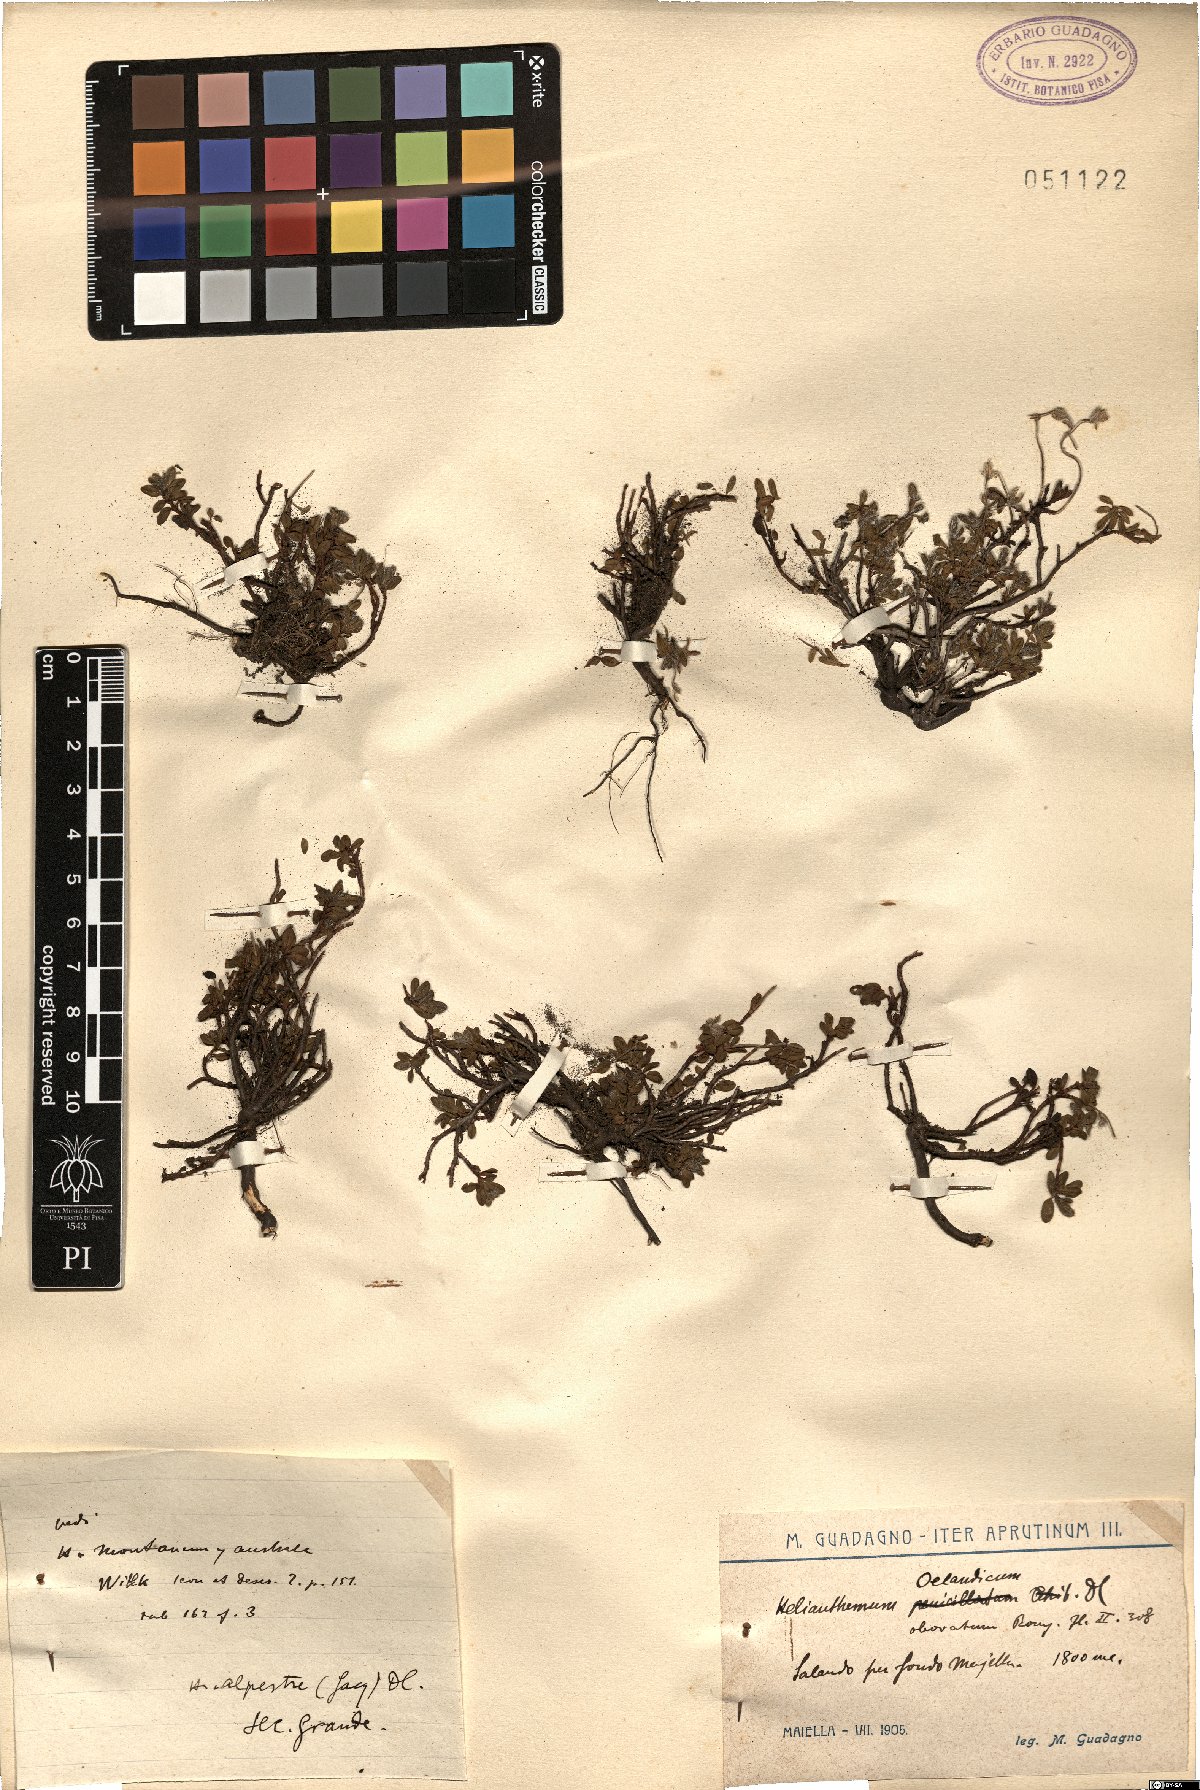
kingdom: Plantae
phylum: Tracheophyta
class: Magnoliopsida
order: Malvales
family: Cistaceae
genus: Helianthemum
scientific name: Helianthemum oelandicum
